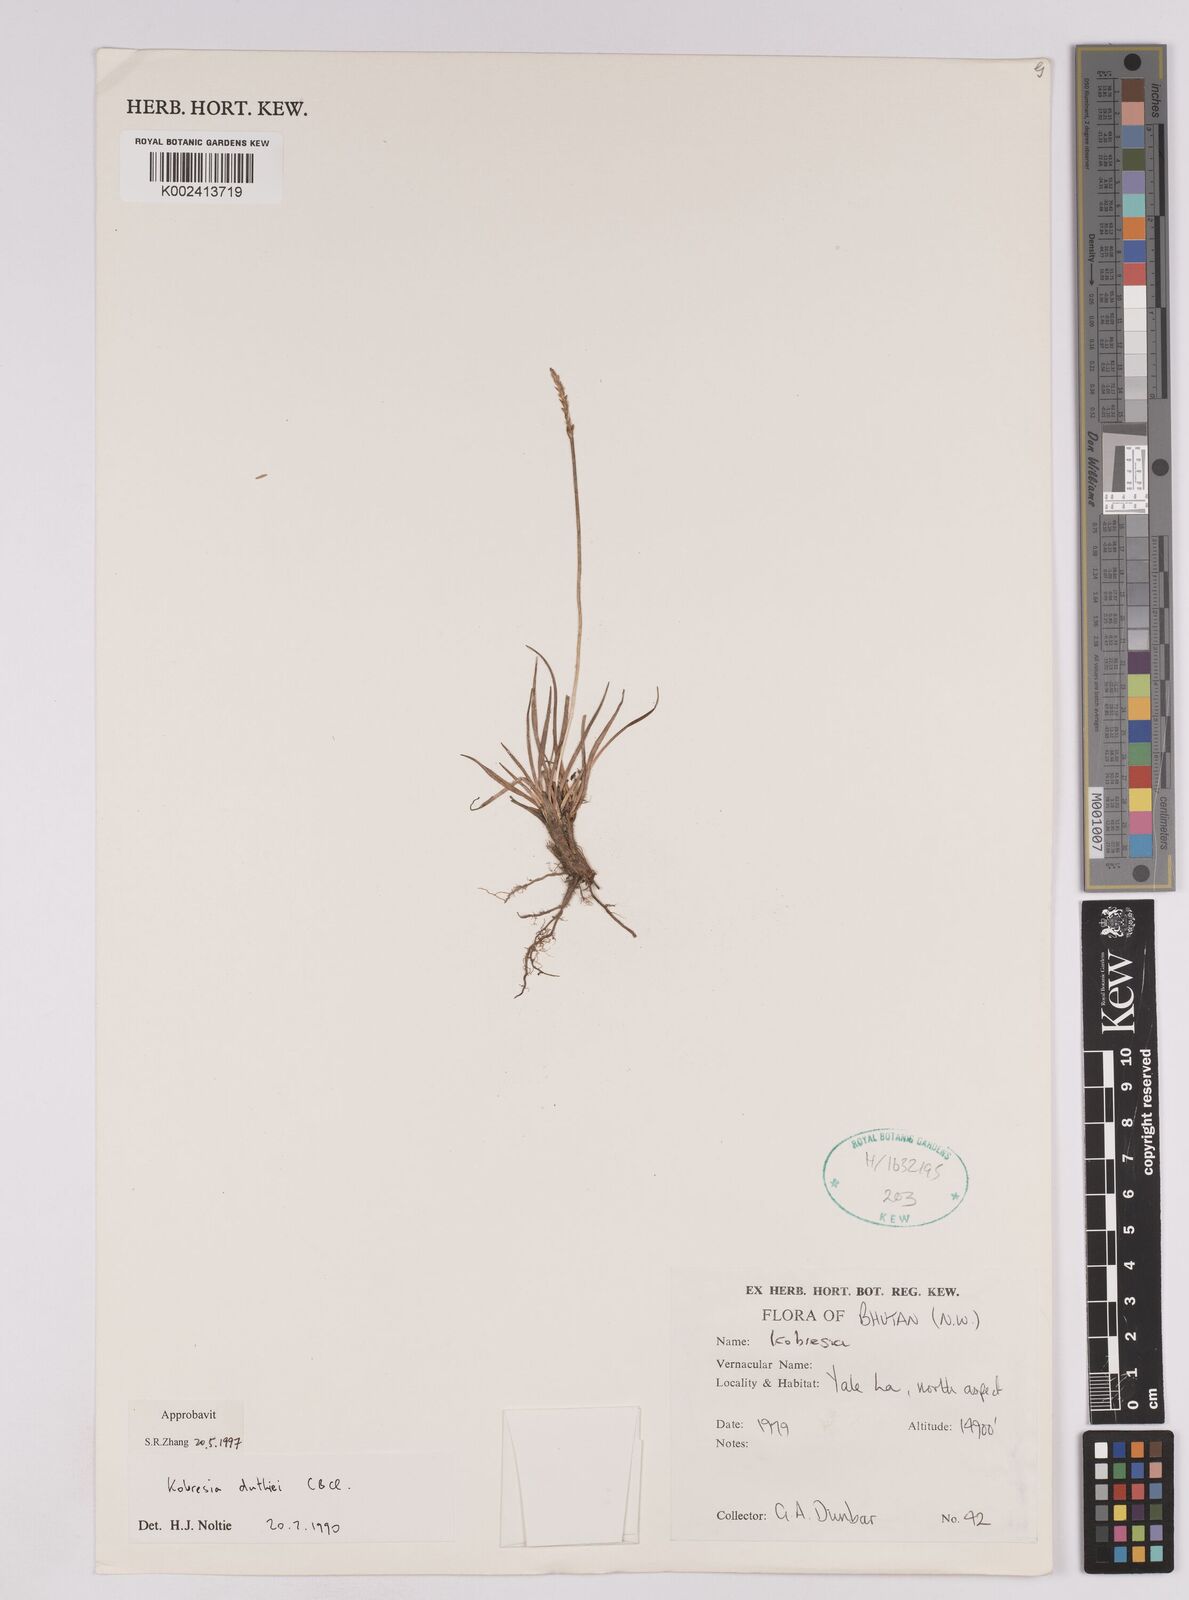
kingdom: Plantae
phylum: Tracheophyta
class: Liliopsida
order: Poales
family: Cyperaceae
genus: Carex
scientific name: Carex clavispica
